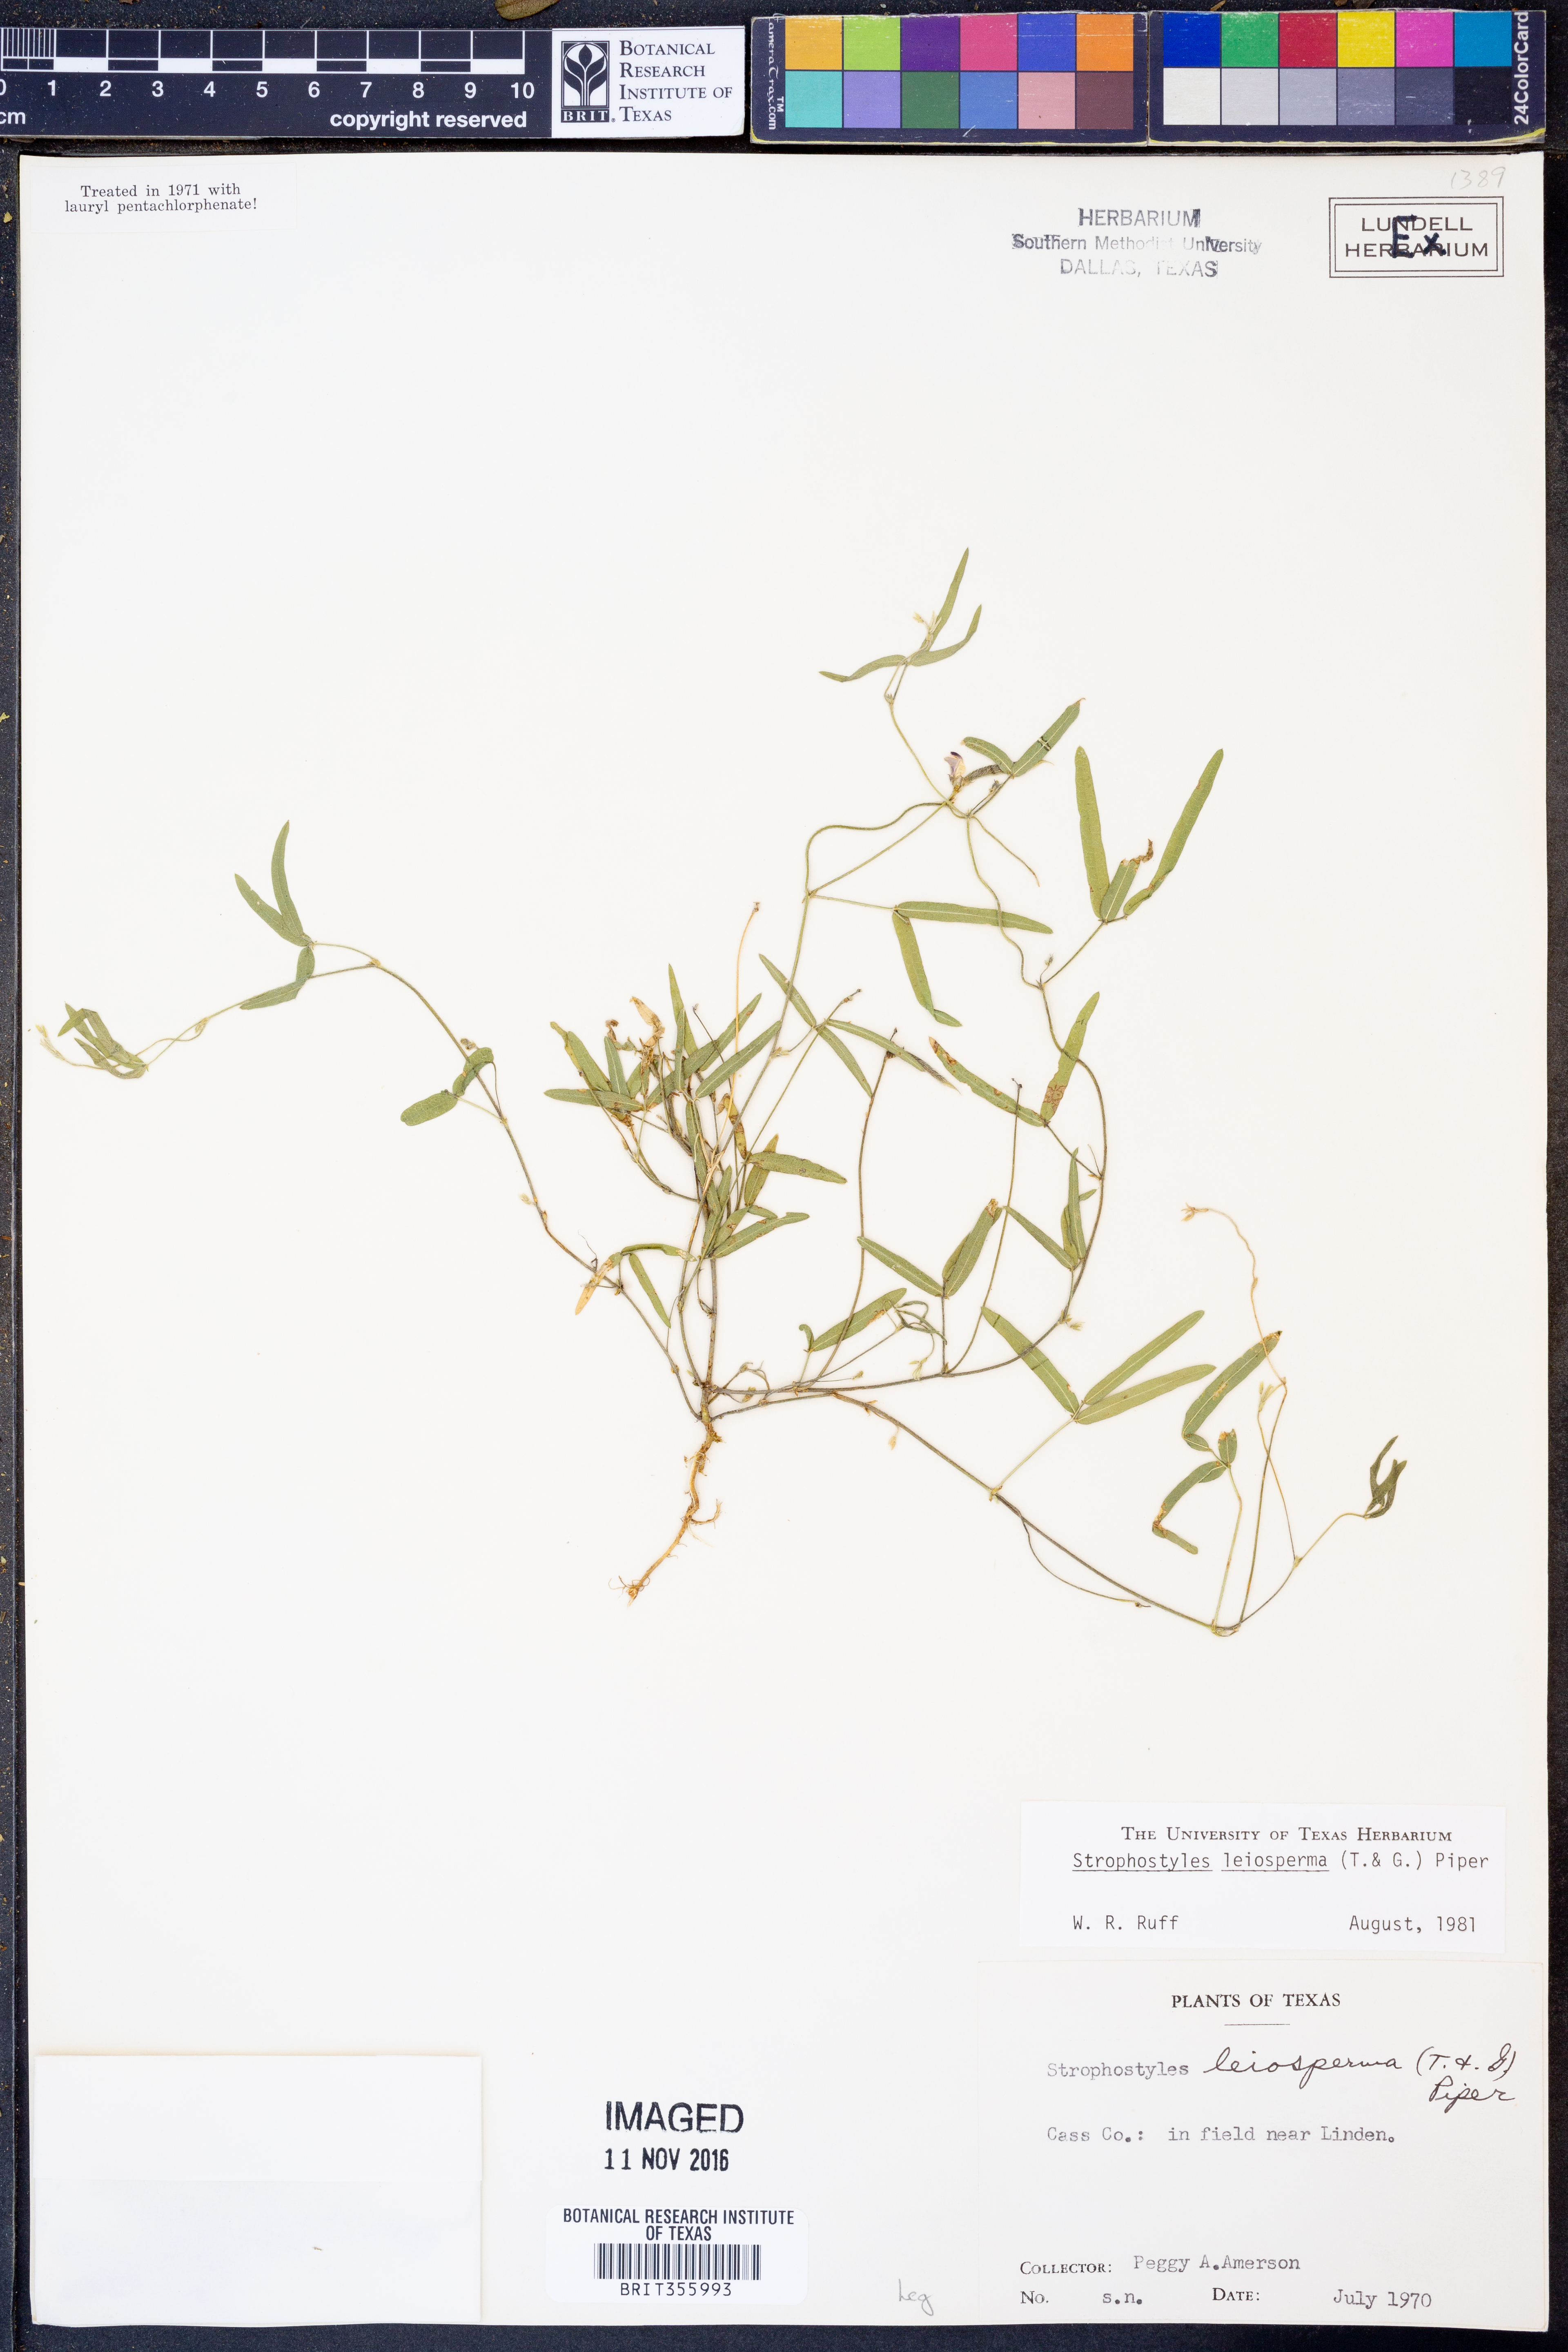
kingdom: Plantae
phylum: Tracheophyta
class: Magnoliopsida
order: Fabales
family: Fabaceae
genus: Strophostyles
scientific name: Strophostyles leiosperma
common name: Smooth-seed wild bean
